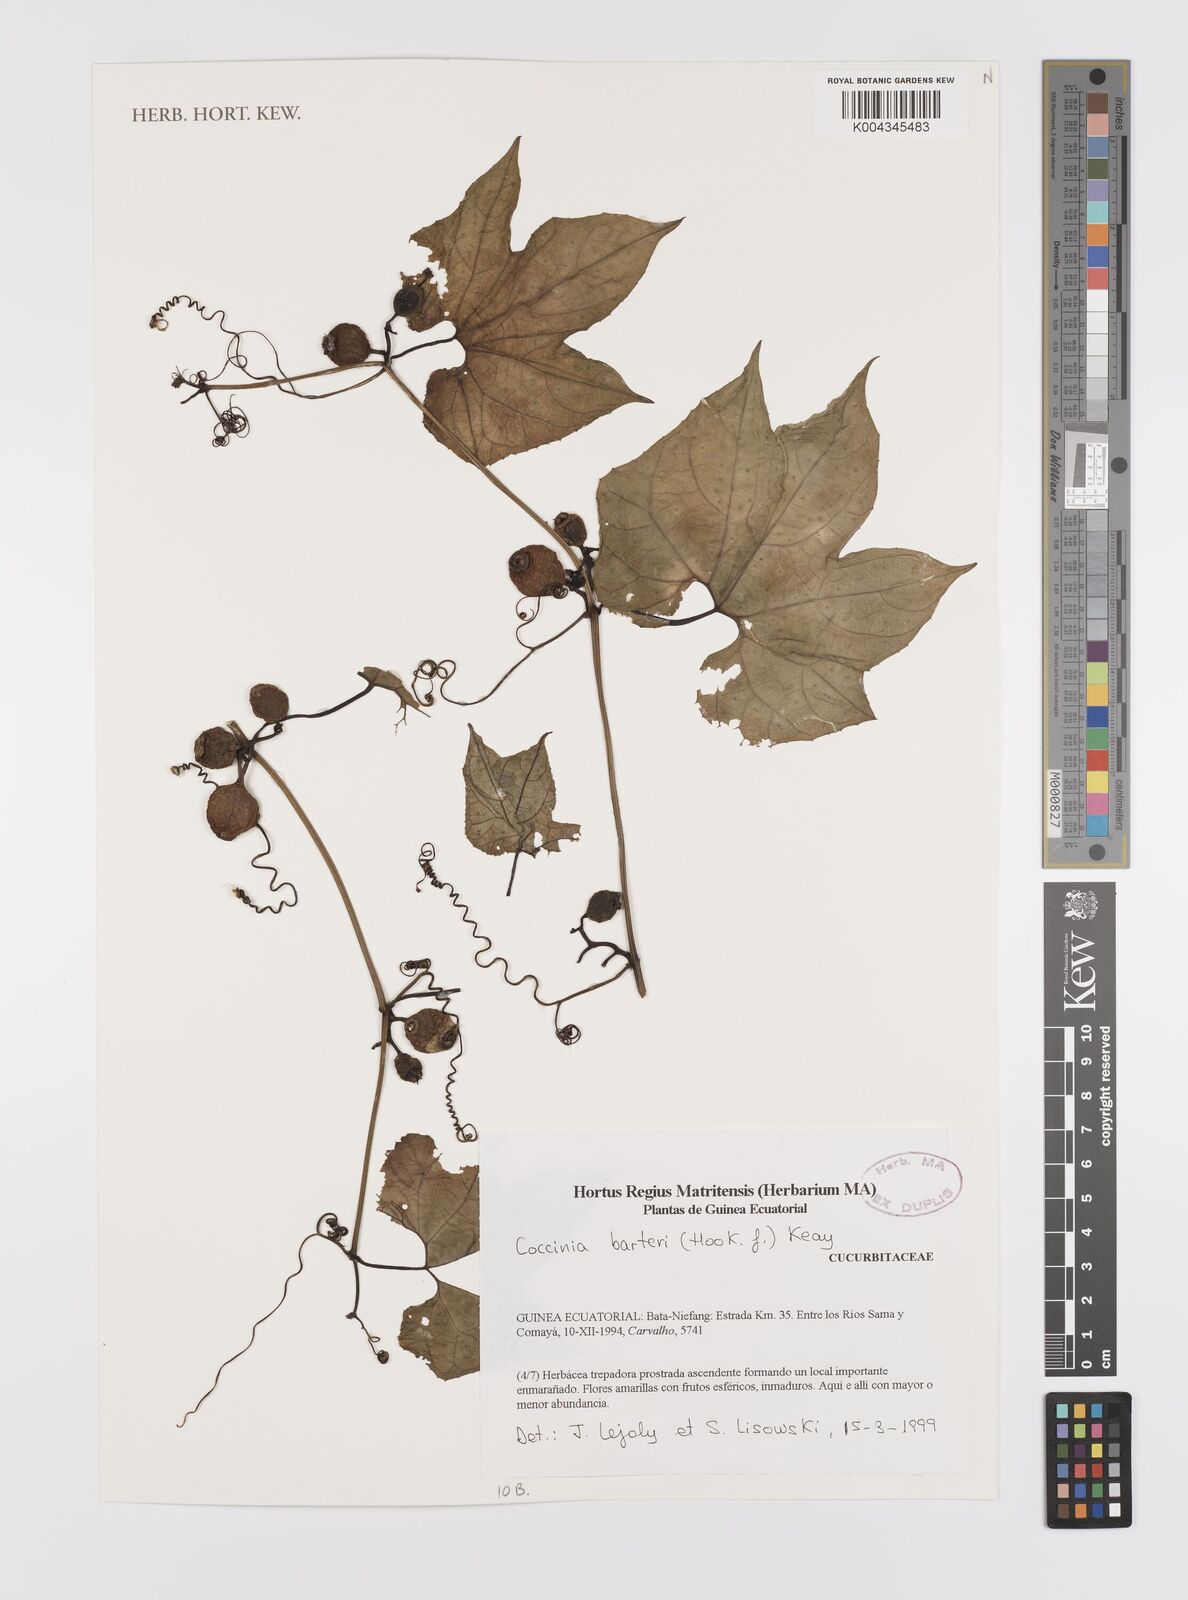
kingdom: Plantae
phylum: Tracheophyta
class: Magnoliopsida
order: Cucurbitales
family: Cucurbitaceae
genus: Coccinia
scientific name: Coccinia barteri
